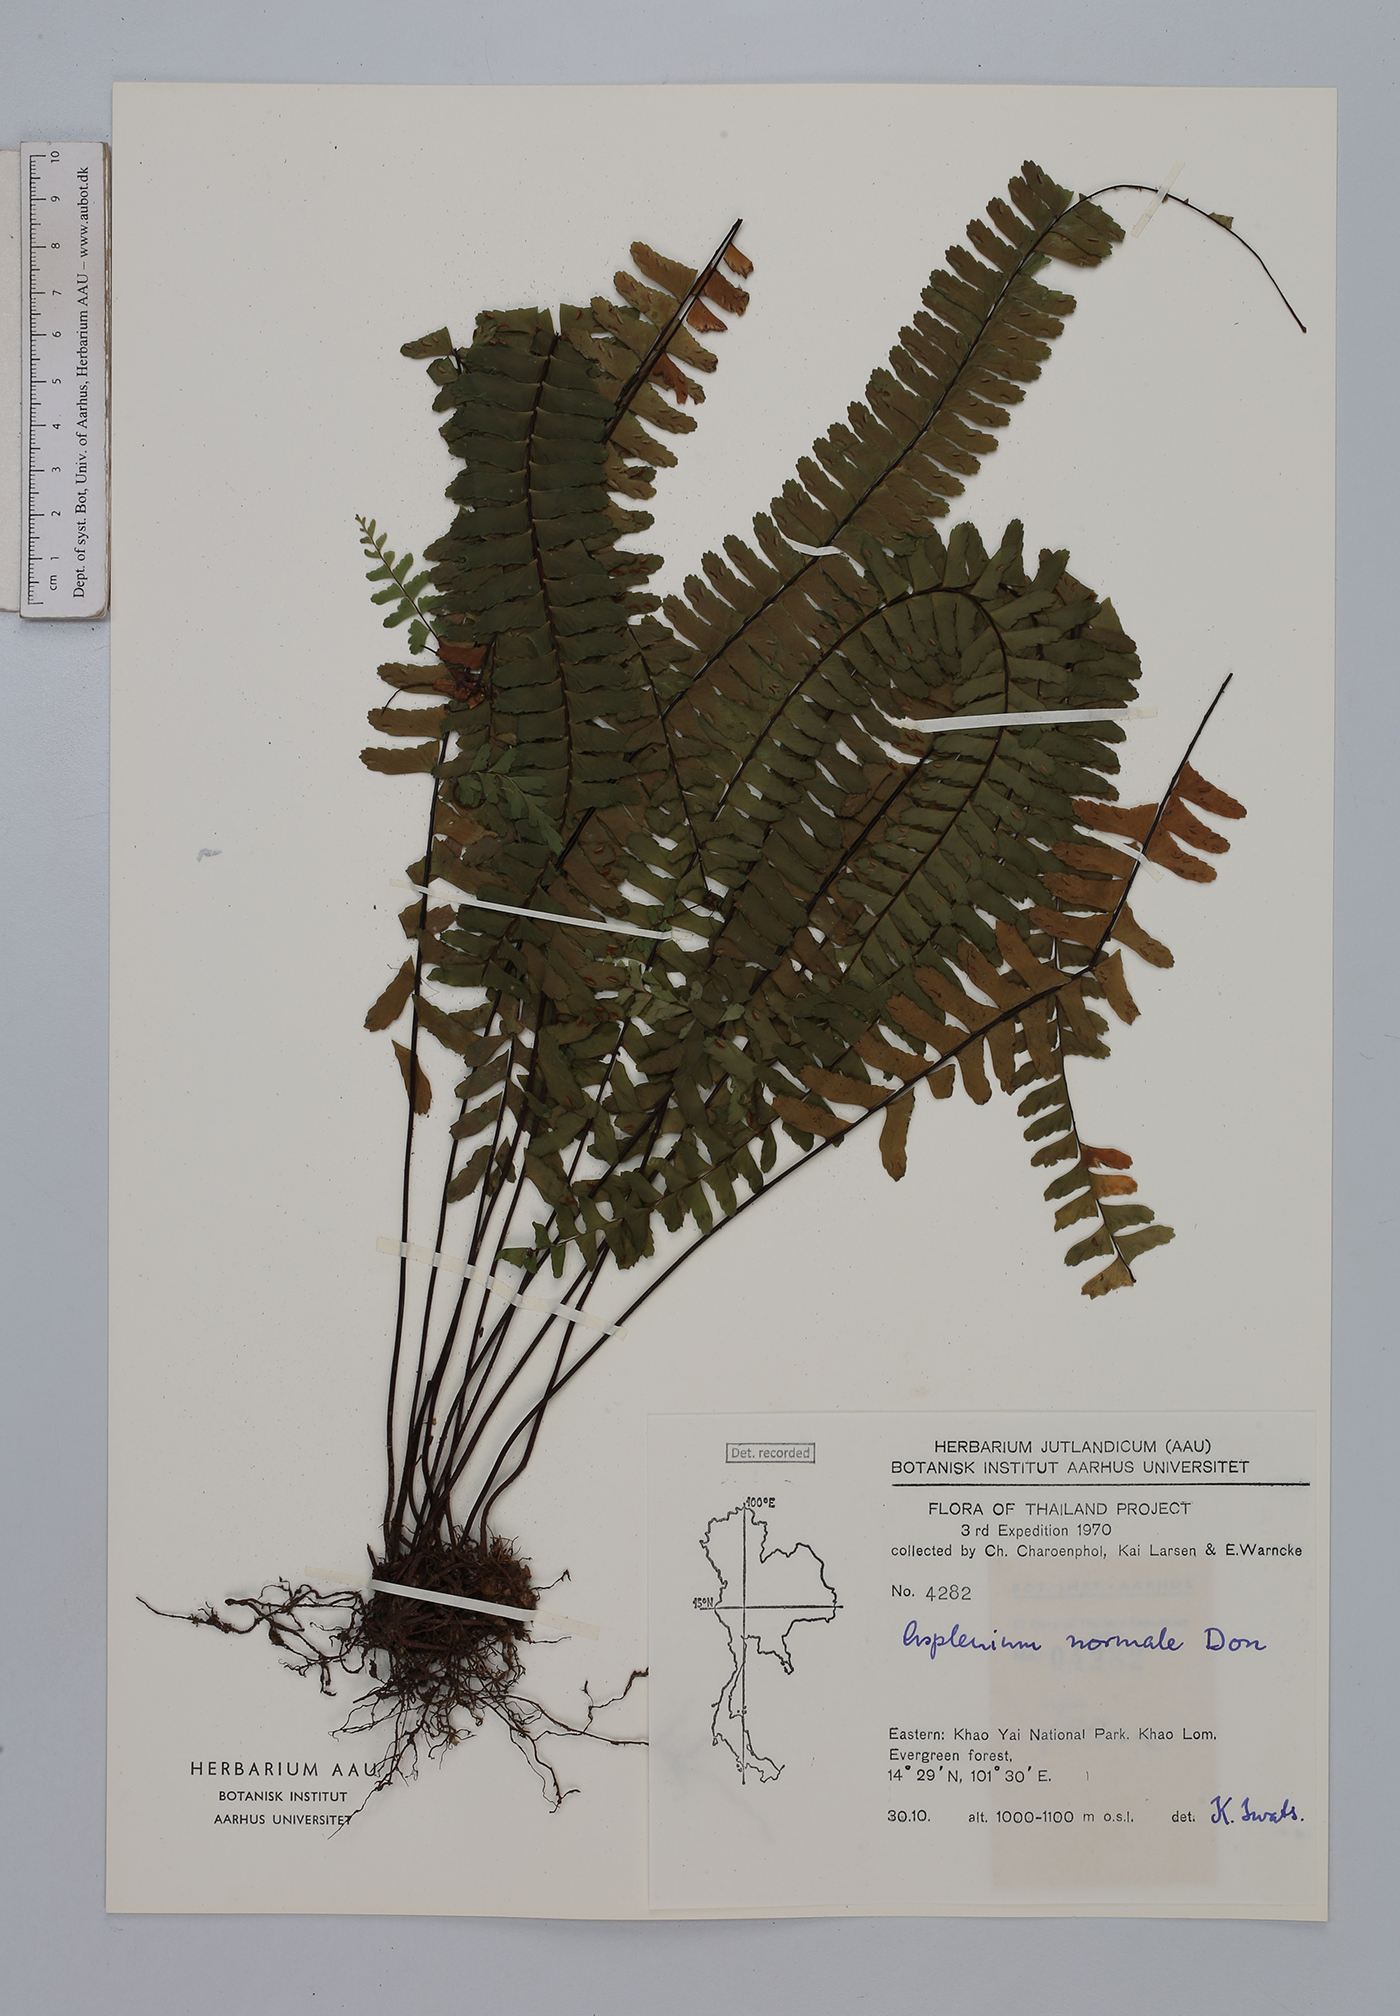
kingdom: Plantae
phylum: Tracheophyta
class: Polypodiopsida
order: Polypodiales
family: Aspleniaceae
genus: Asplenium
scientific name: Asplenium normale
